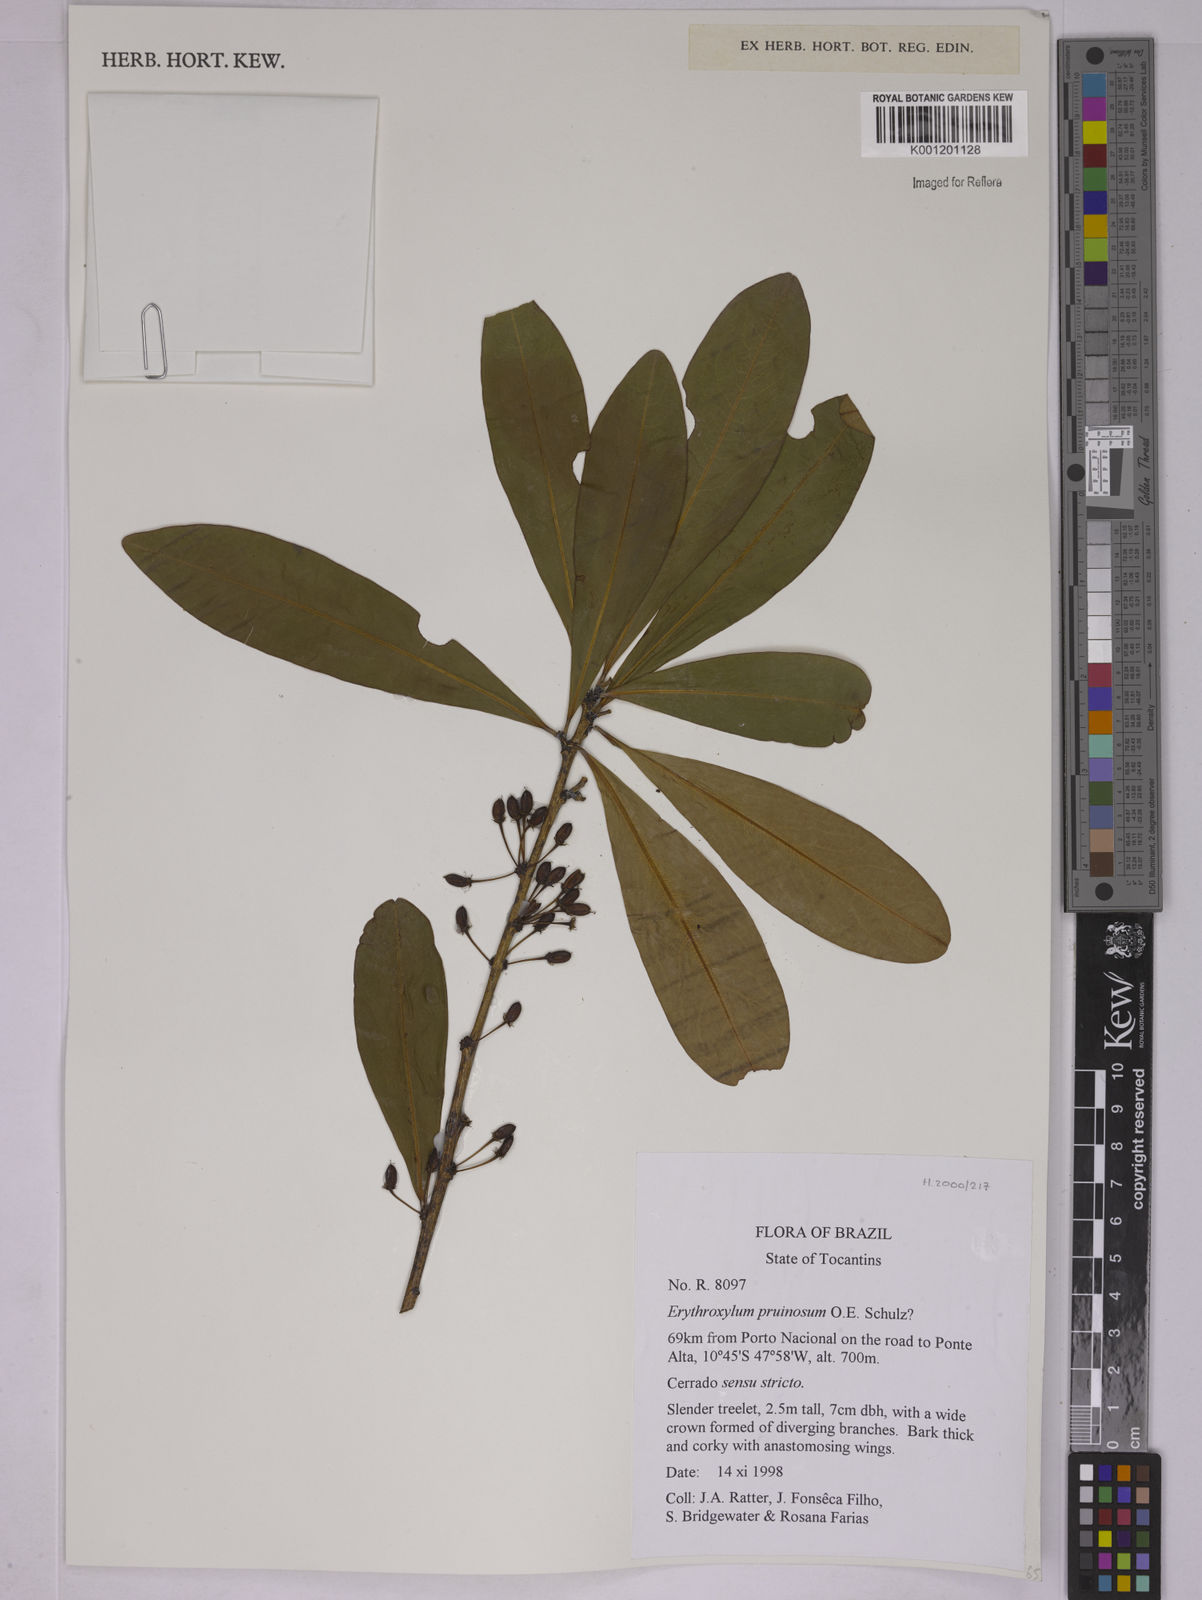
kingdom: Plantae
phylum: Tracheophyta
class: Magnoliopsida
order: Malpighiales
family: Erythroxylaceae
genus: Erythroxylum
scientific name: Erythroxylum pruinosum
